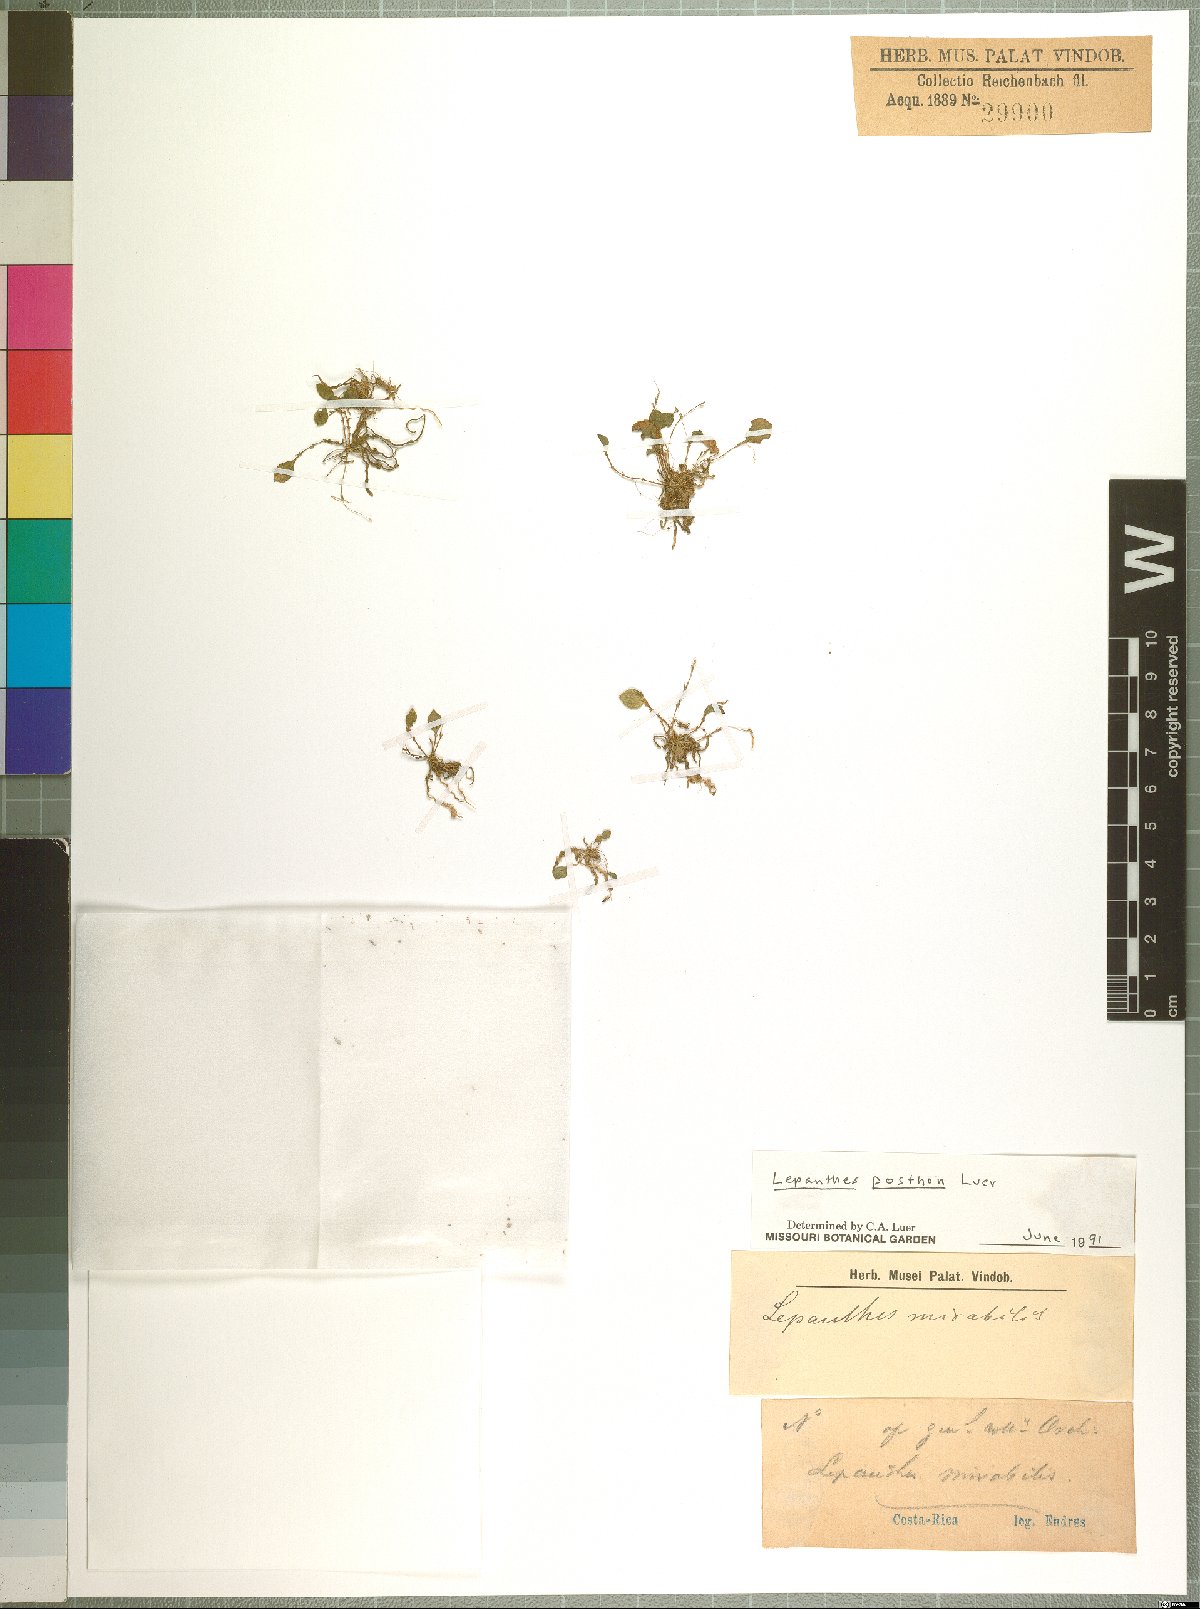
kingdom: Plantae
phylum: Tracheophyta
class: Liliopsida
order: Asparagales
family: Orchidaceae
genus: Lepanthes
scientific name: Lepanthes posthon
